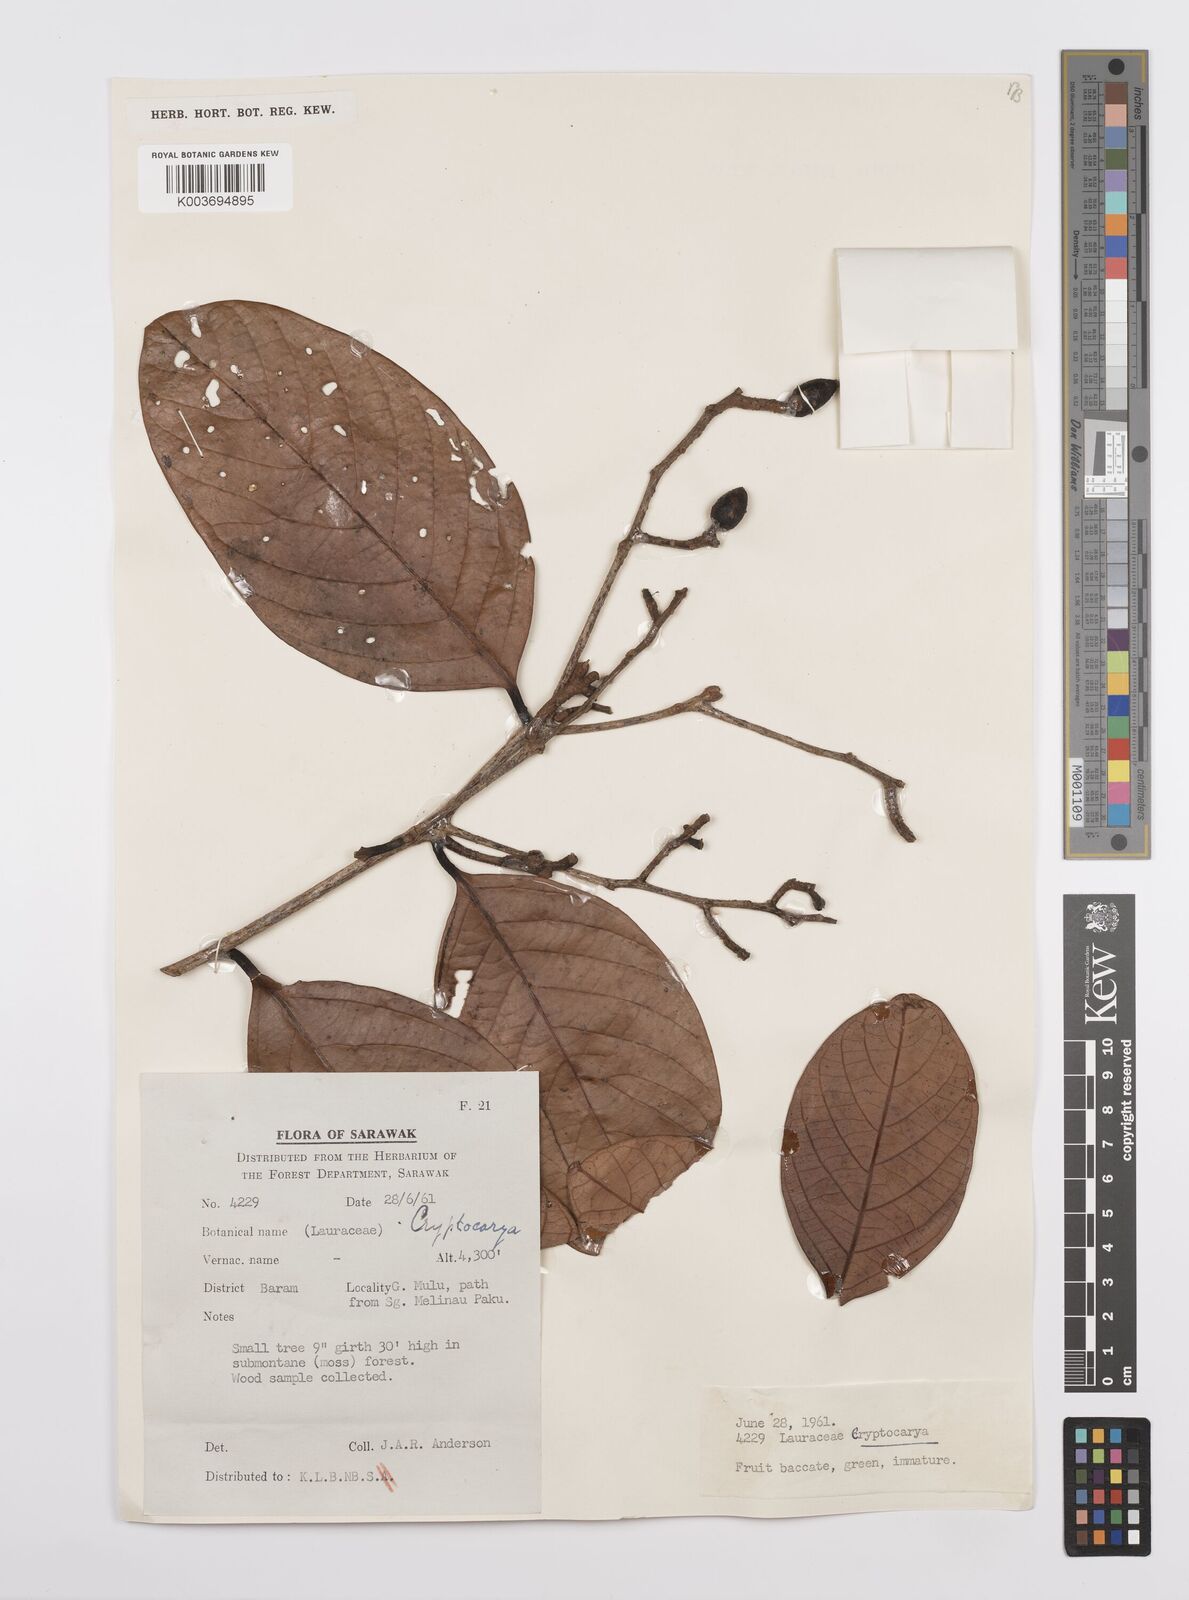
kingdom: Plantae
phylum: Tracheophyta
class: Magnoliopsida
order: Laurales
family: Lauraceae
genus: Cryptocarya
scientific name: Cryptocarya
